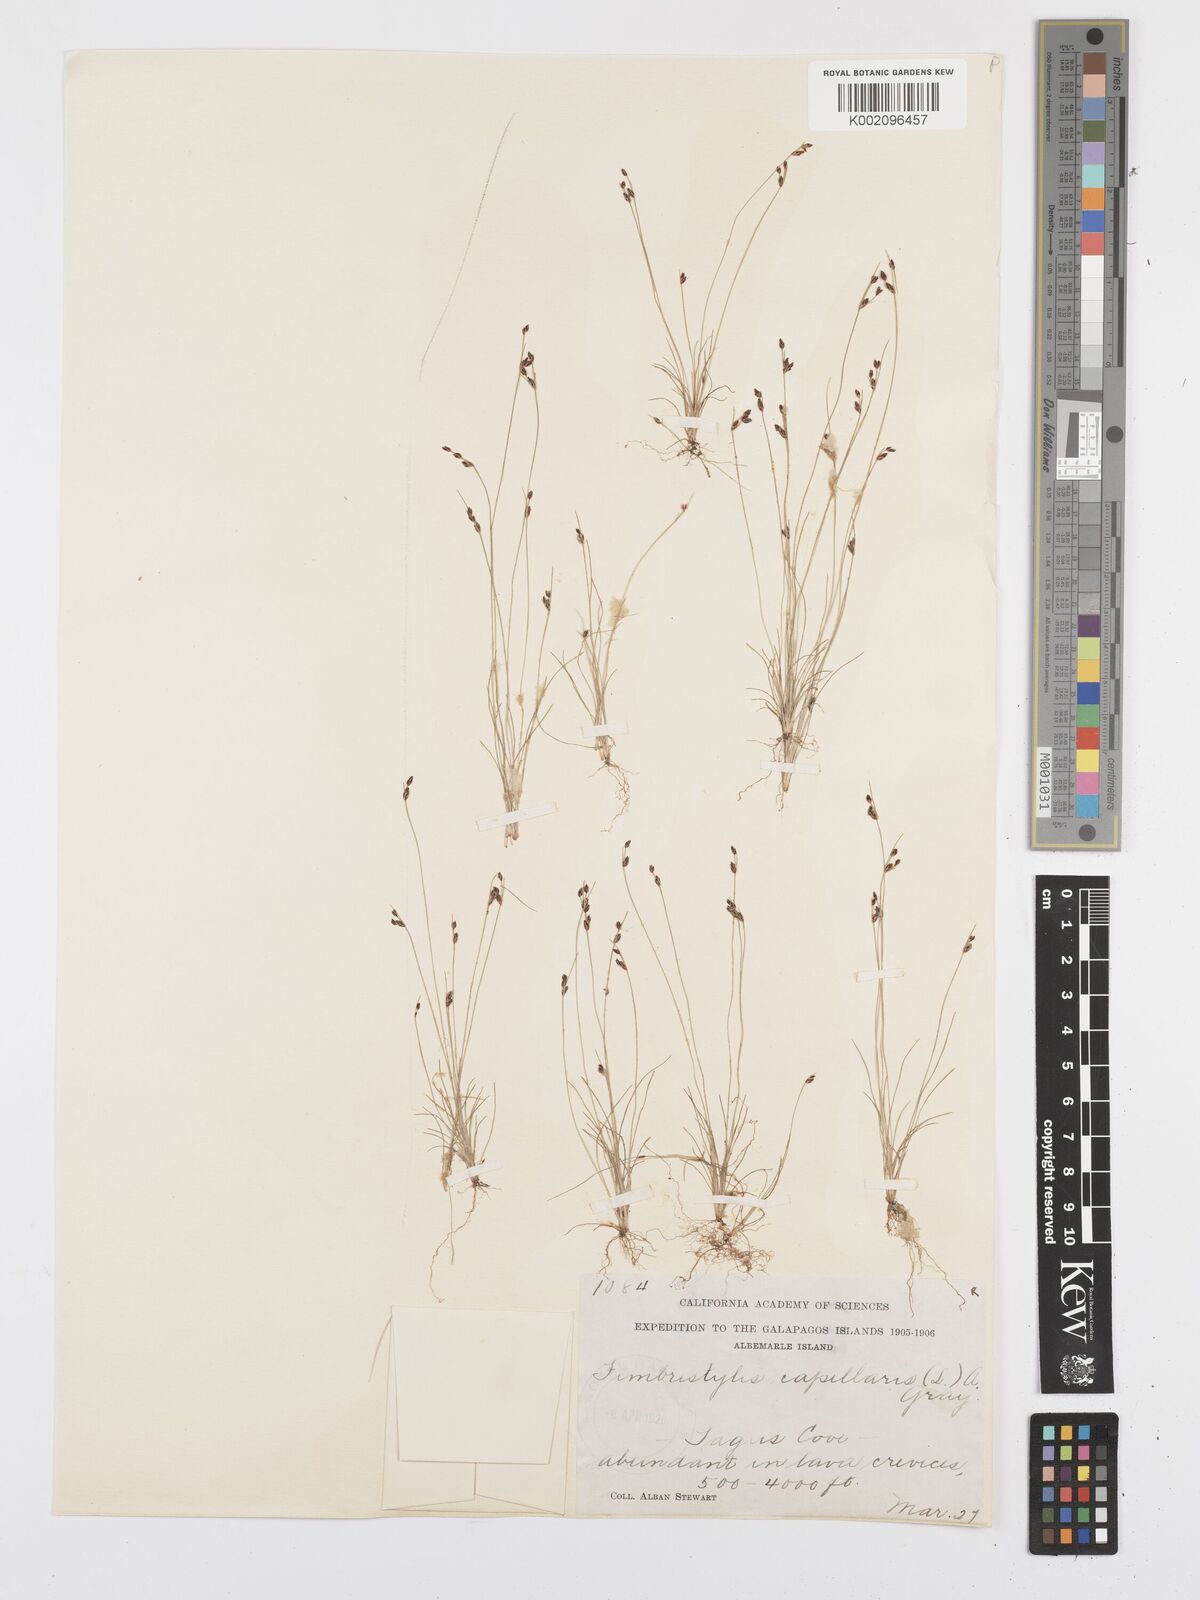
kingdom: Plantae
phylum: Tracheophyta
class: Liliopsida
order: Poales
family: Cyperaceae
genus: Bulbostylis
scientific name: Bulbostylis capillaris
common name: Densetuft hairsedge
